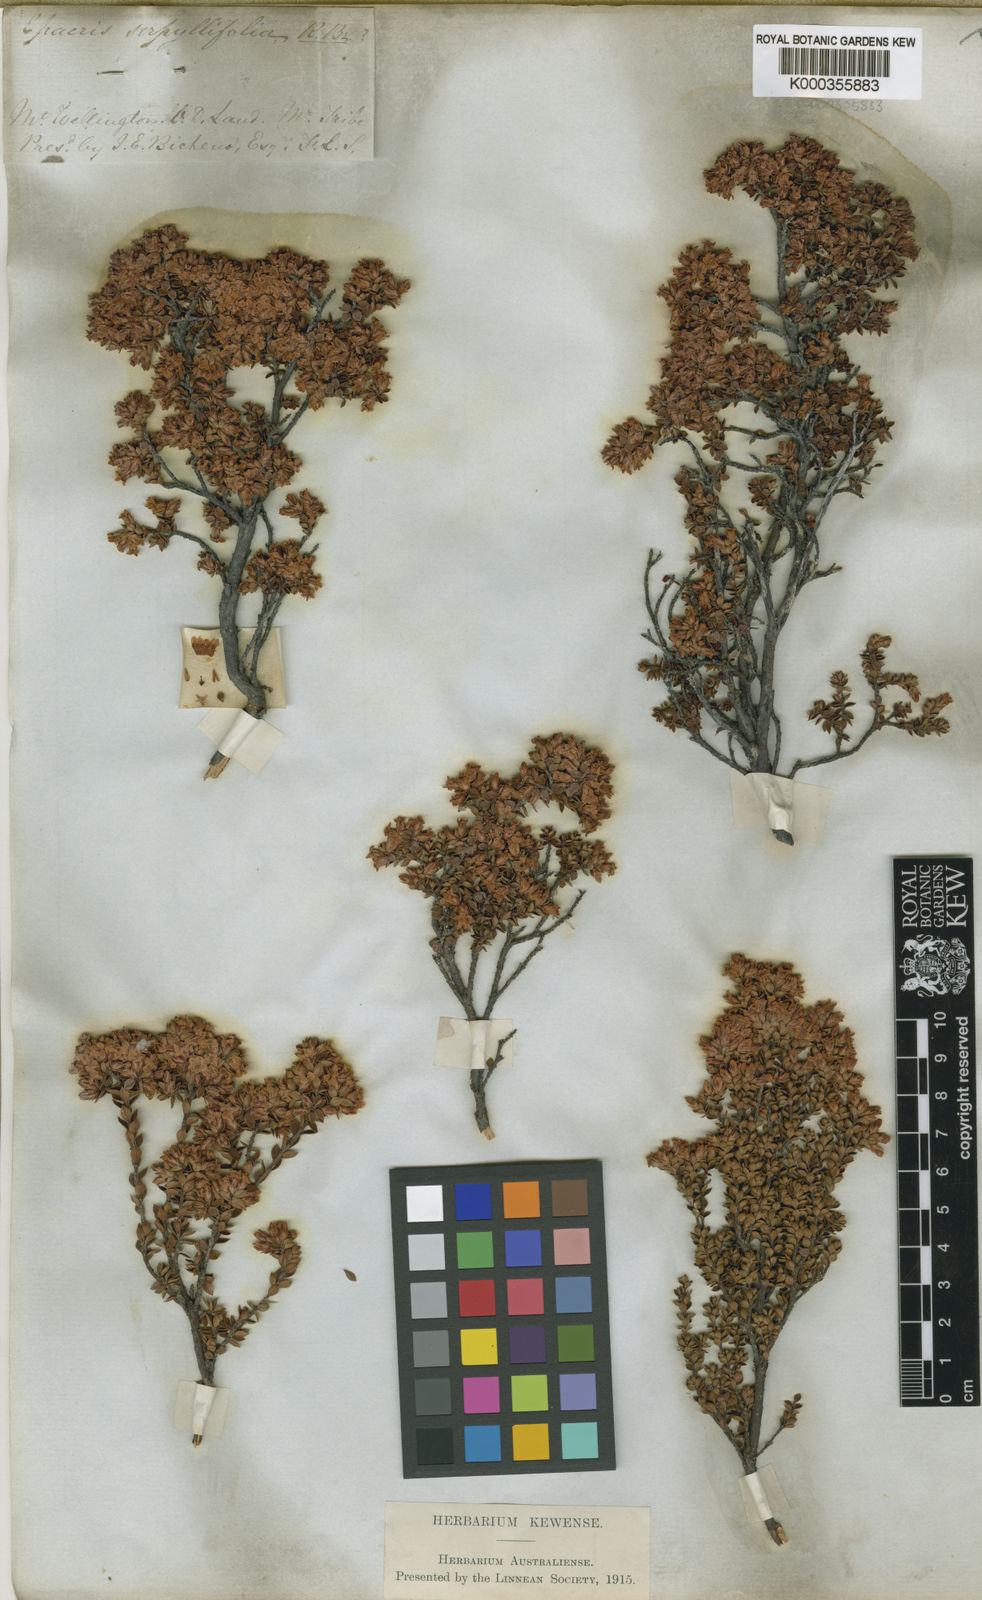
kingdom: Plantae
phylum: Tracheophyta
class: Magnoliopsida
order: Ericales
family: Ericaceae
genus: Epacris
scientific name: Epacris serpyllifolia
